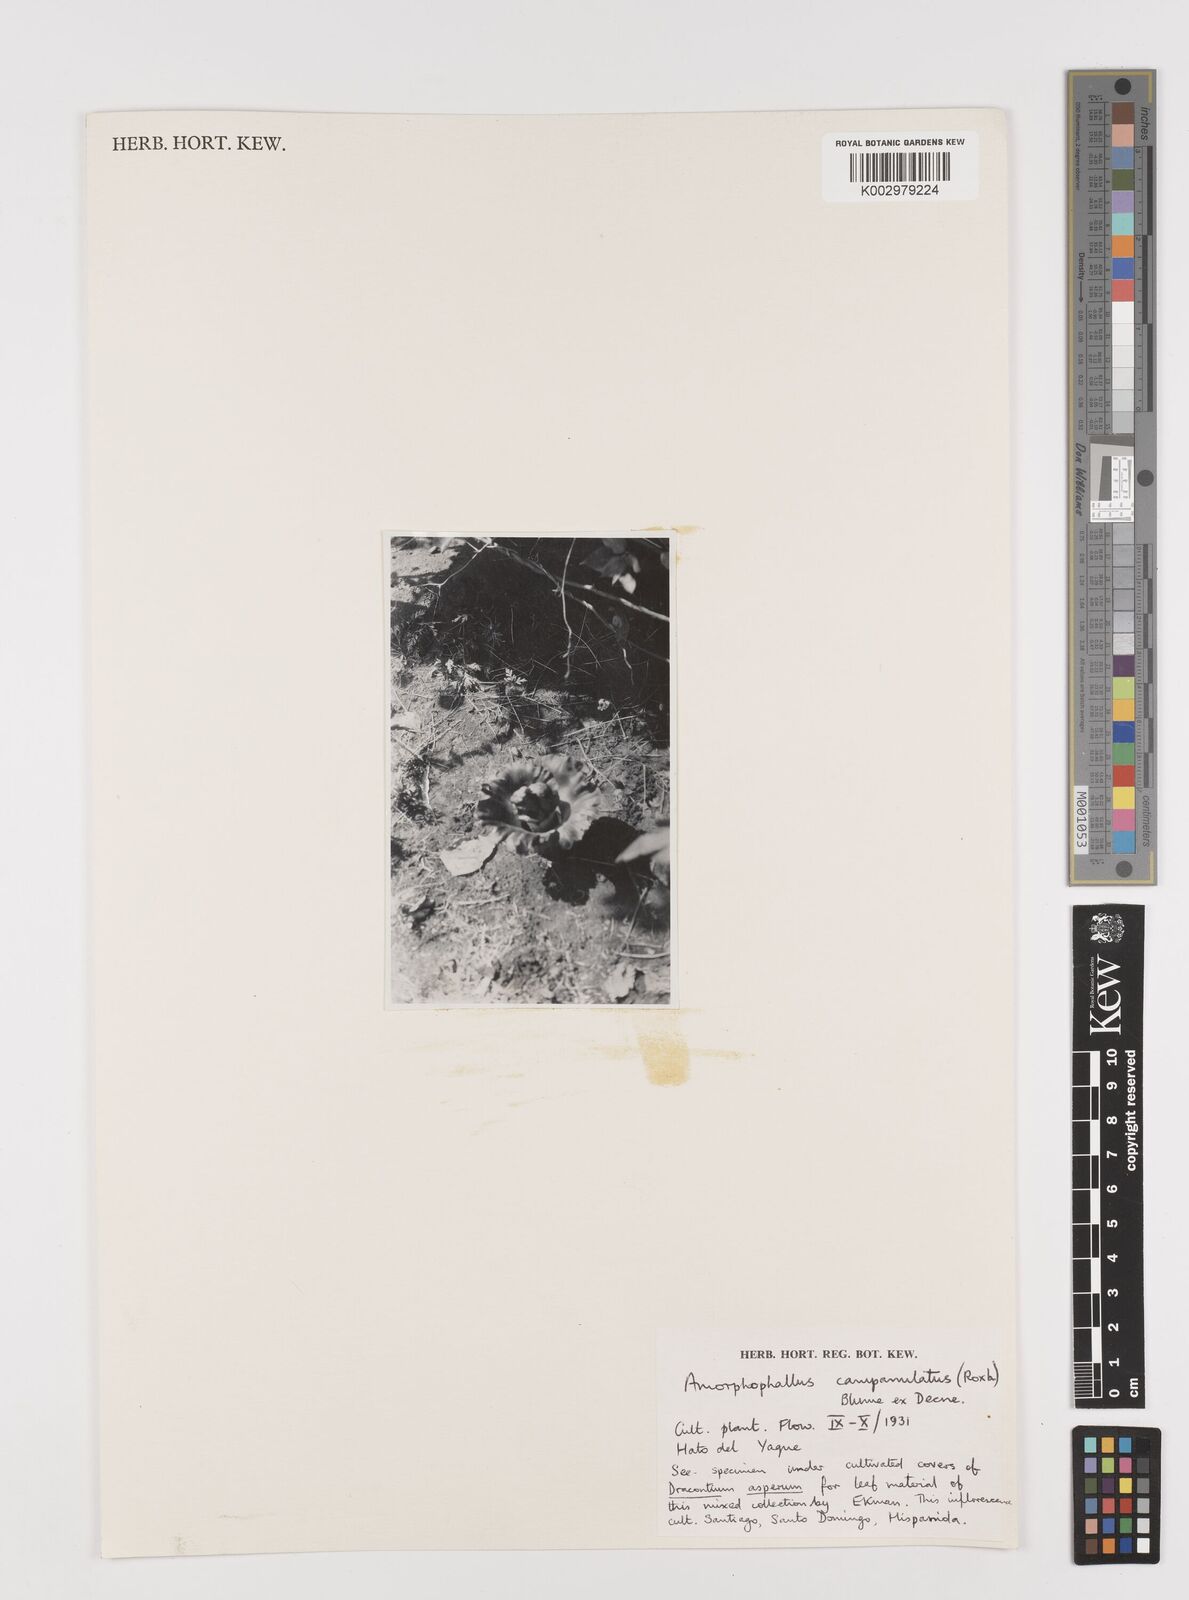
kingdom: Plantae
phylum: Tracheophyta
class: Liliopsida
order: Alismatales
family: Araceae
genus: Amorphophallus
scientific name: Amorphophallus paeoniifolius
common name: Telinga-potato
